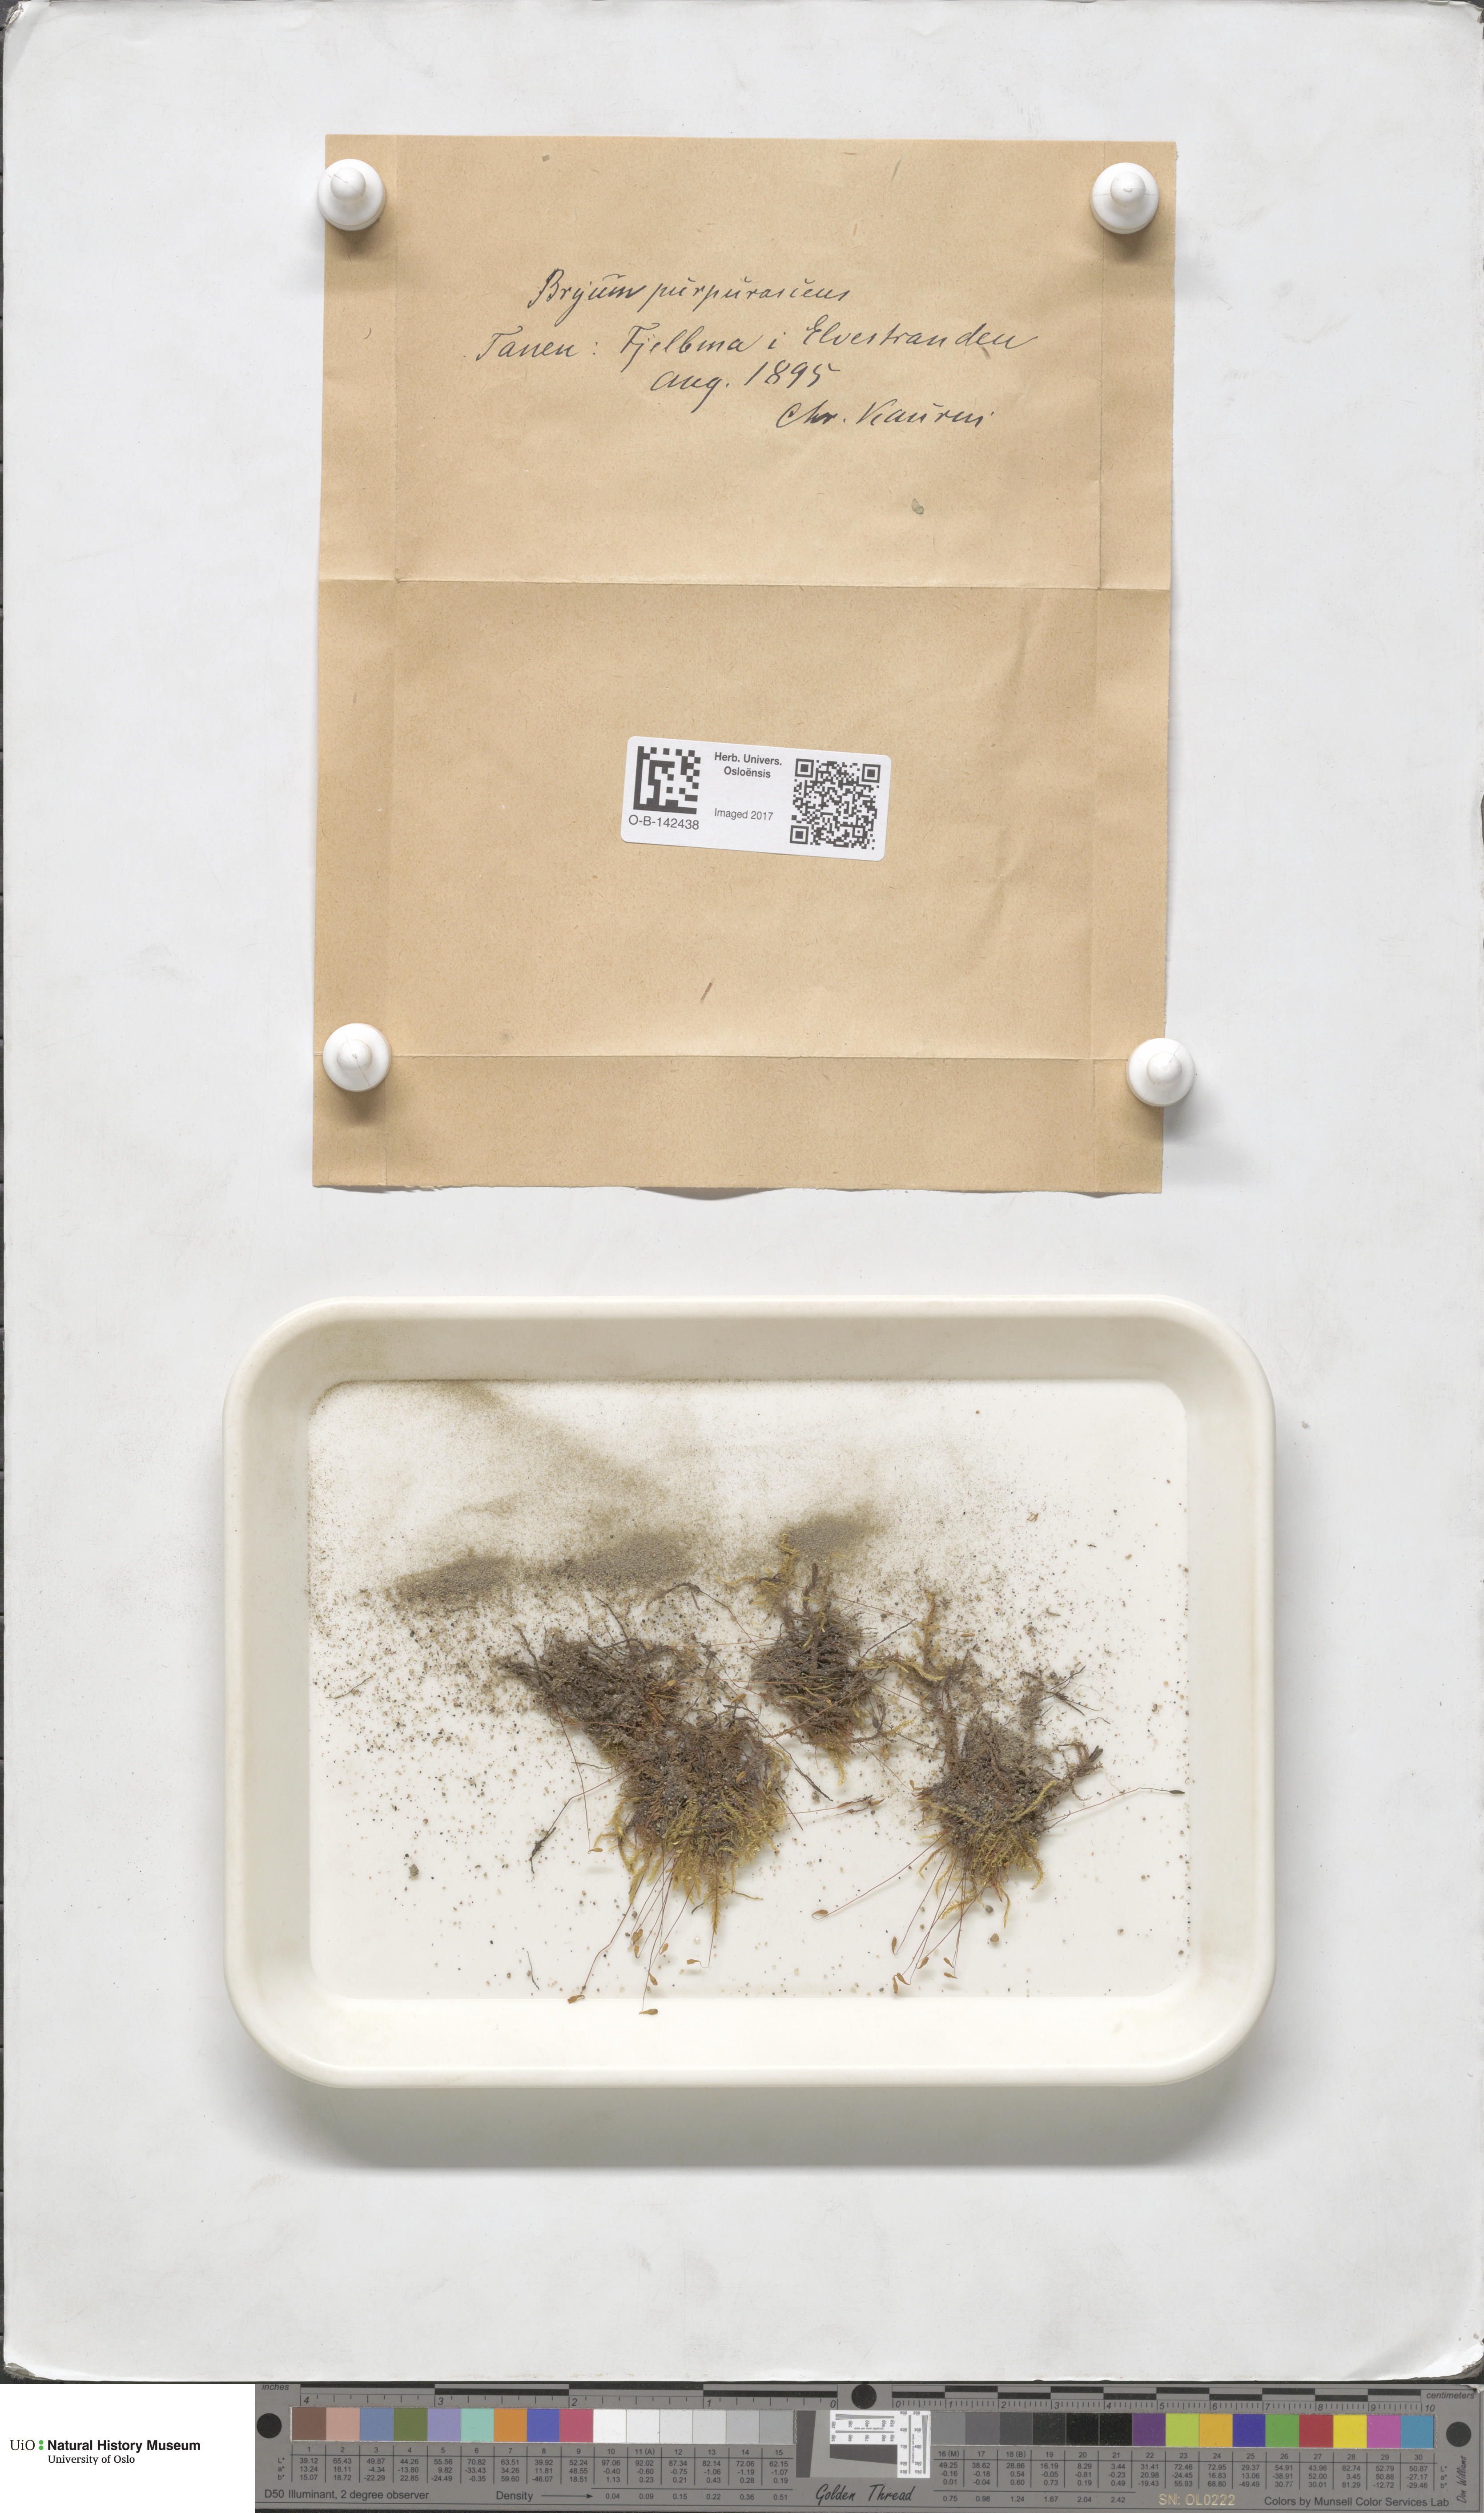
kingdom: Plantae
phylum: Bryophyta
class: Bryopsida
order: Bryales
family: Bryaceae
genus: Ptychostomum
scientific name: Ptychostomum arcticum
